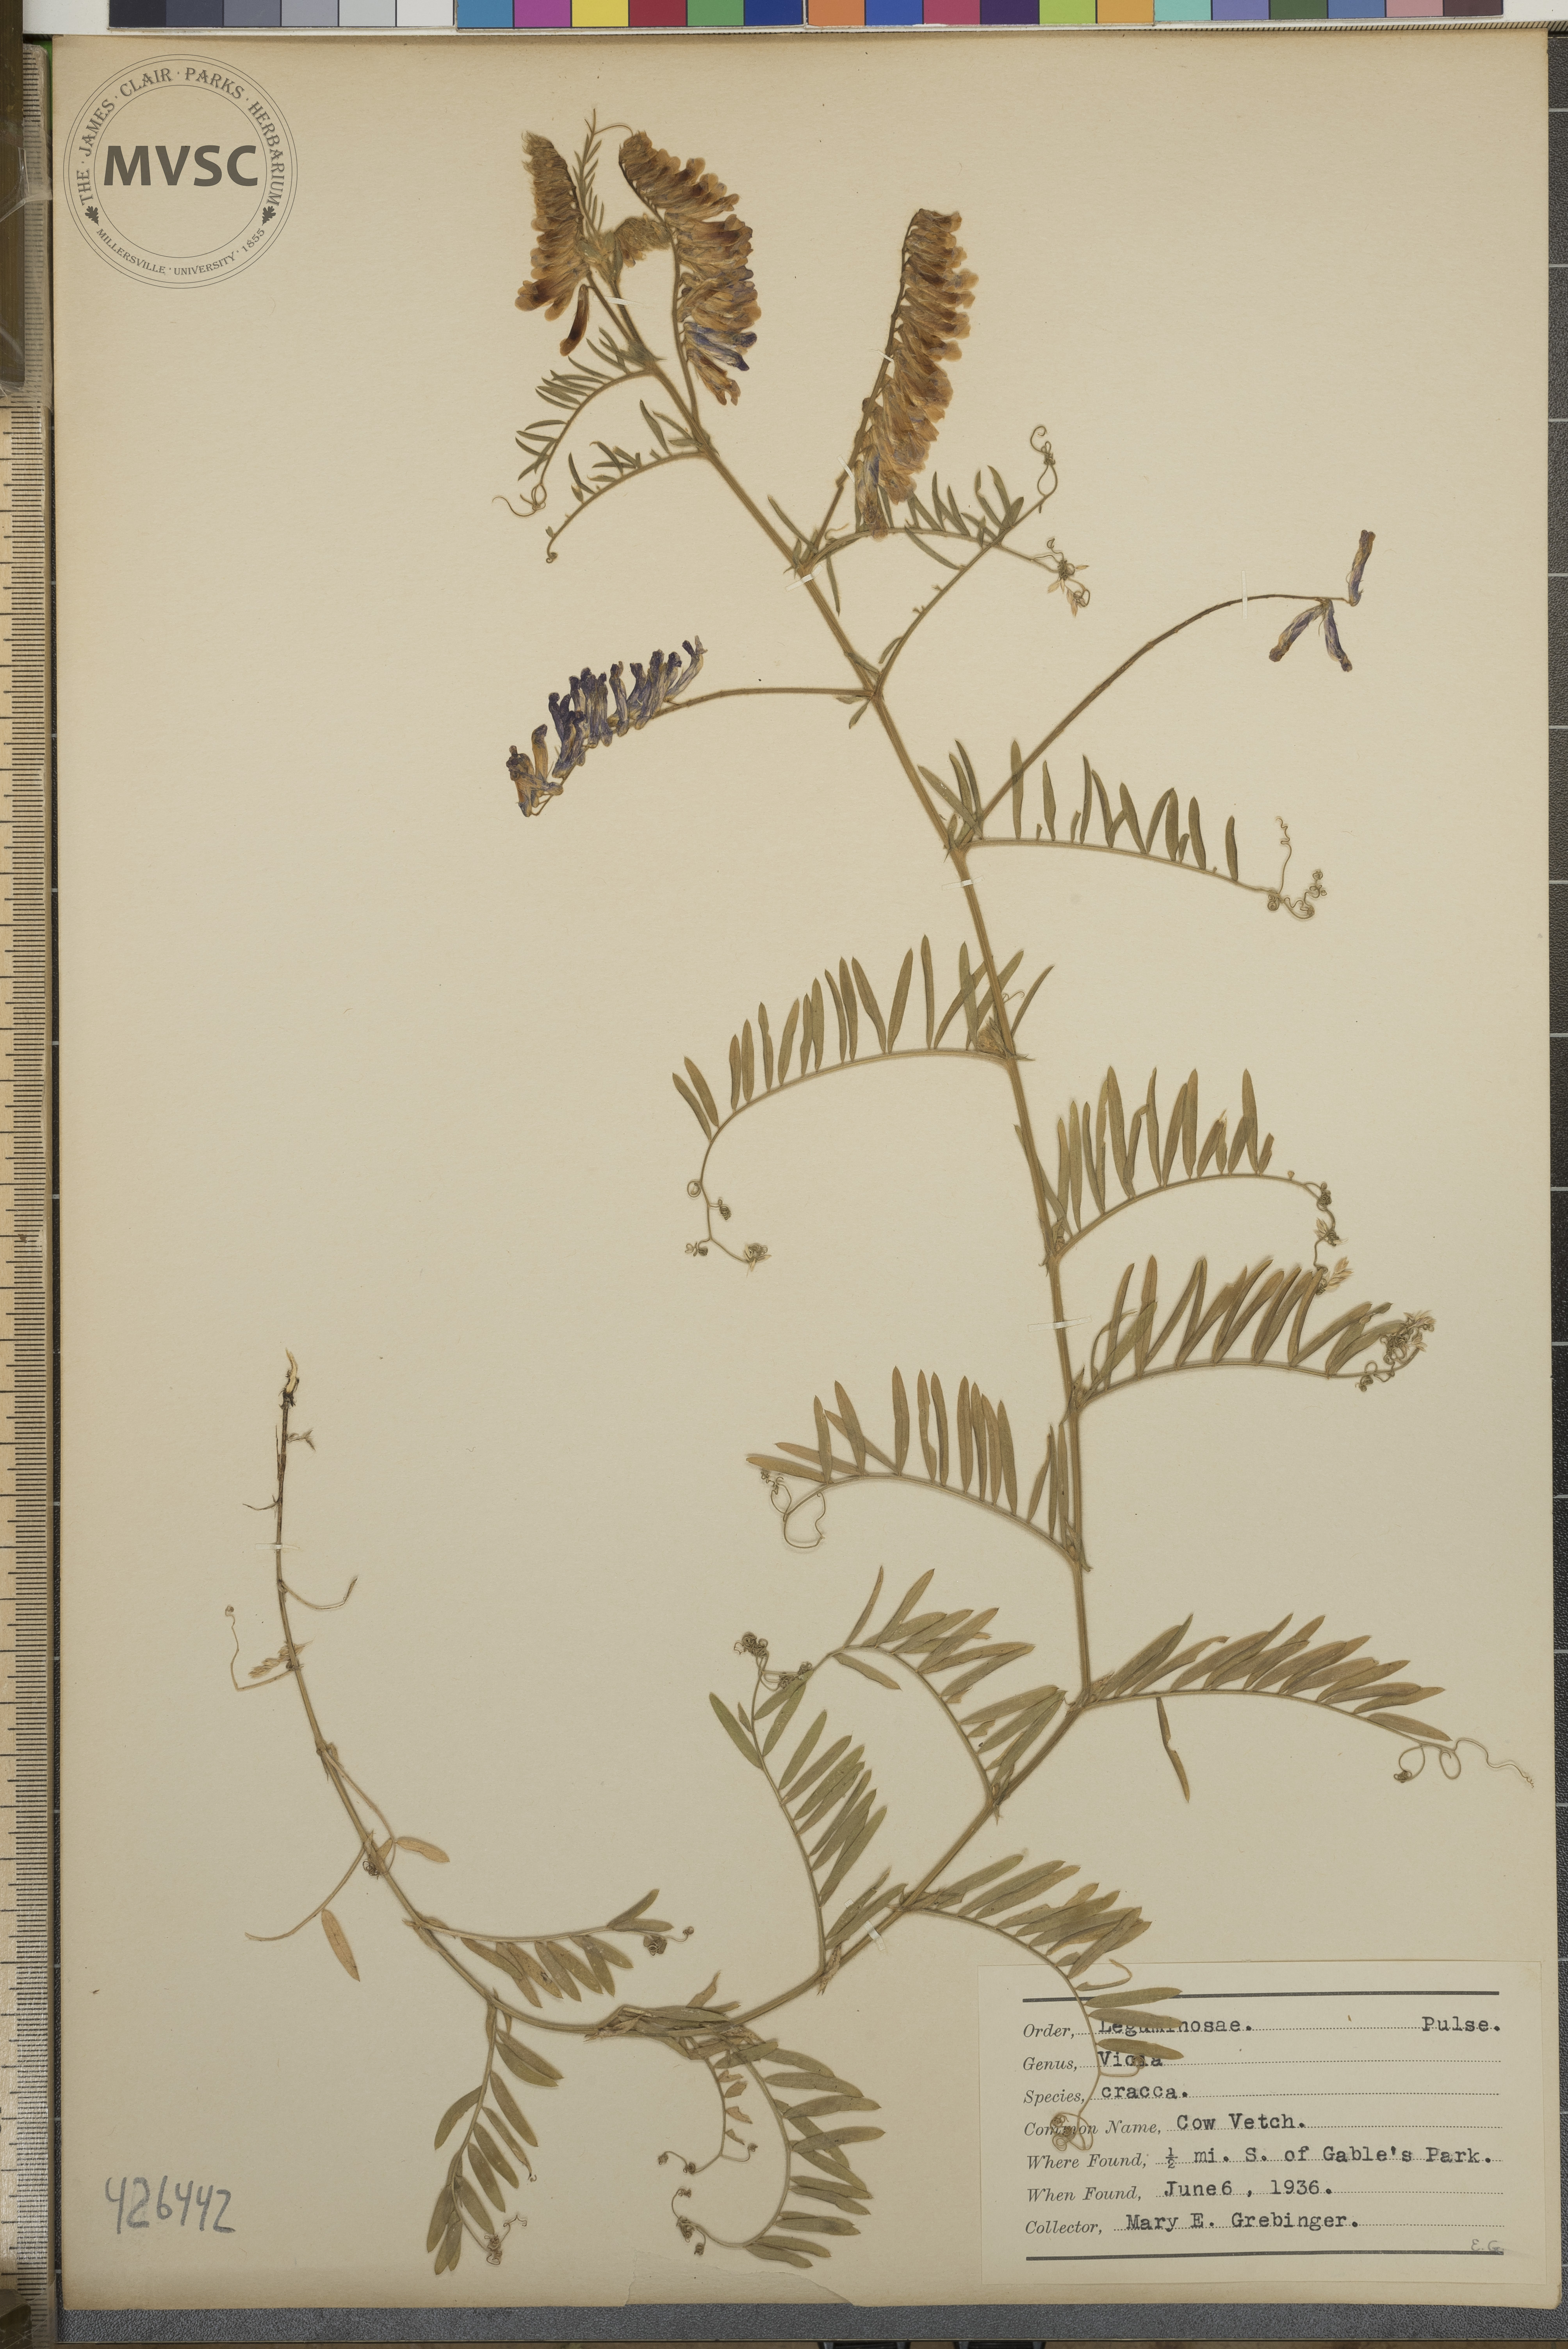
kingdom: Plantae
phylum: Tracheophyta
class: Magnoliopsida
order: Fabales
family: Fabaceae
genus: Vicia
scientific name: Vicia cracca
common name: Cow Vetch
